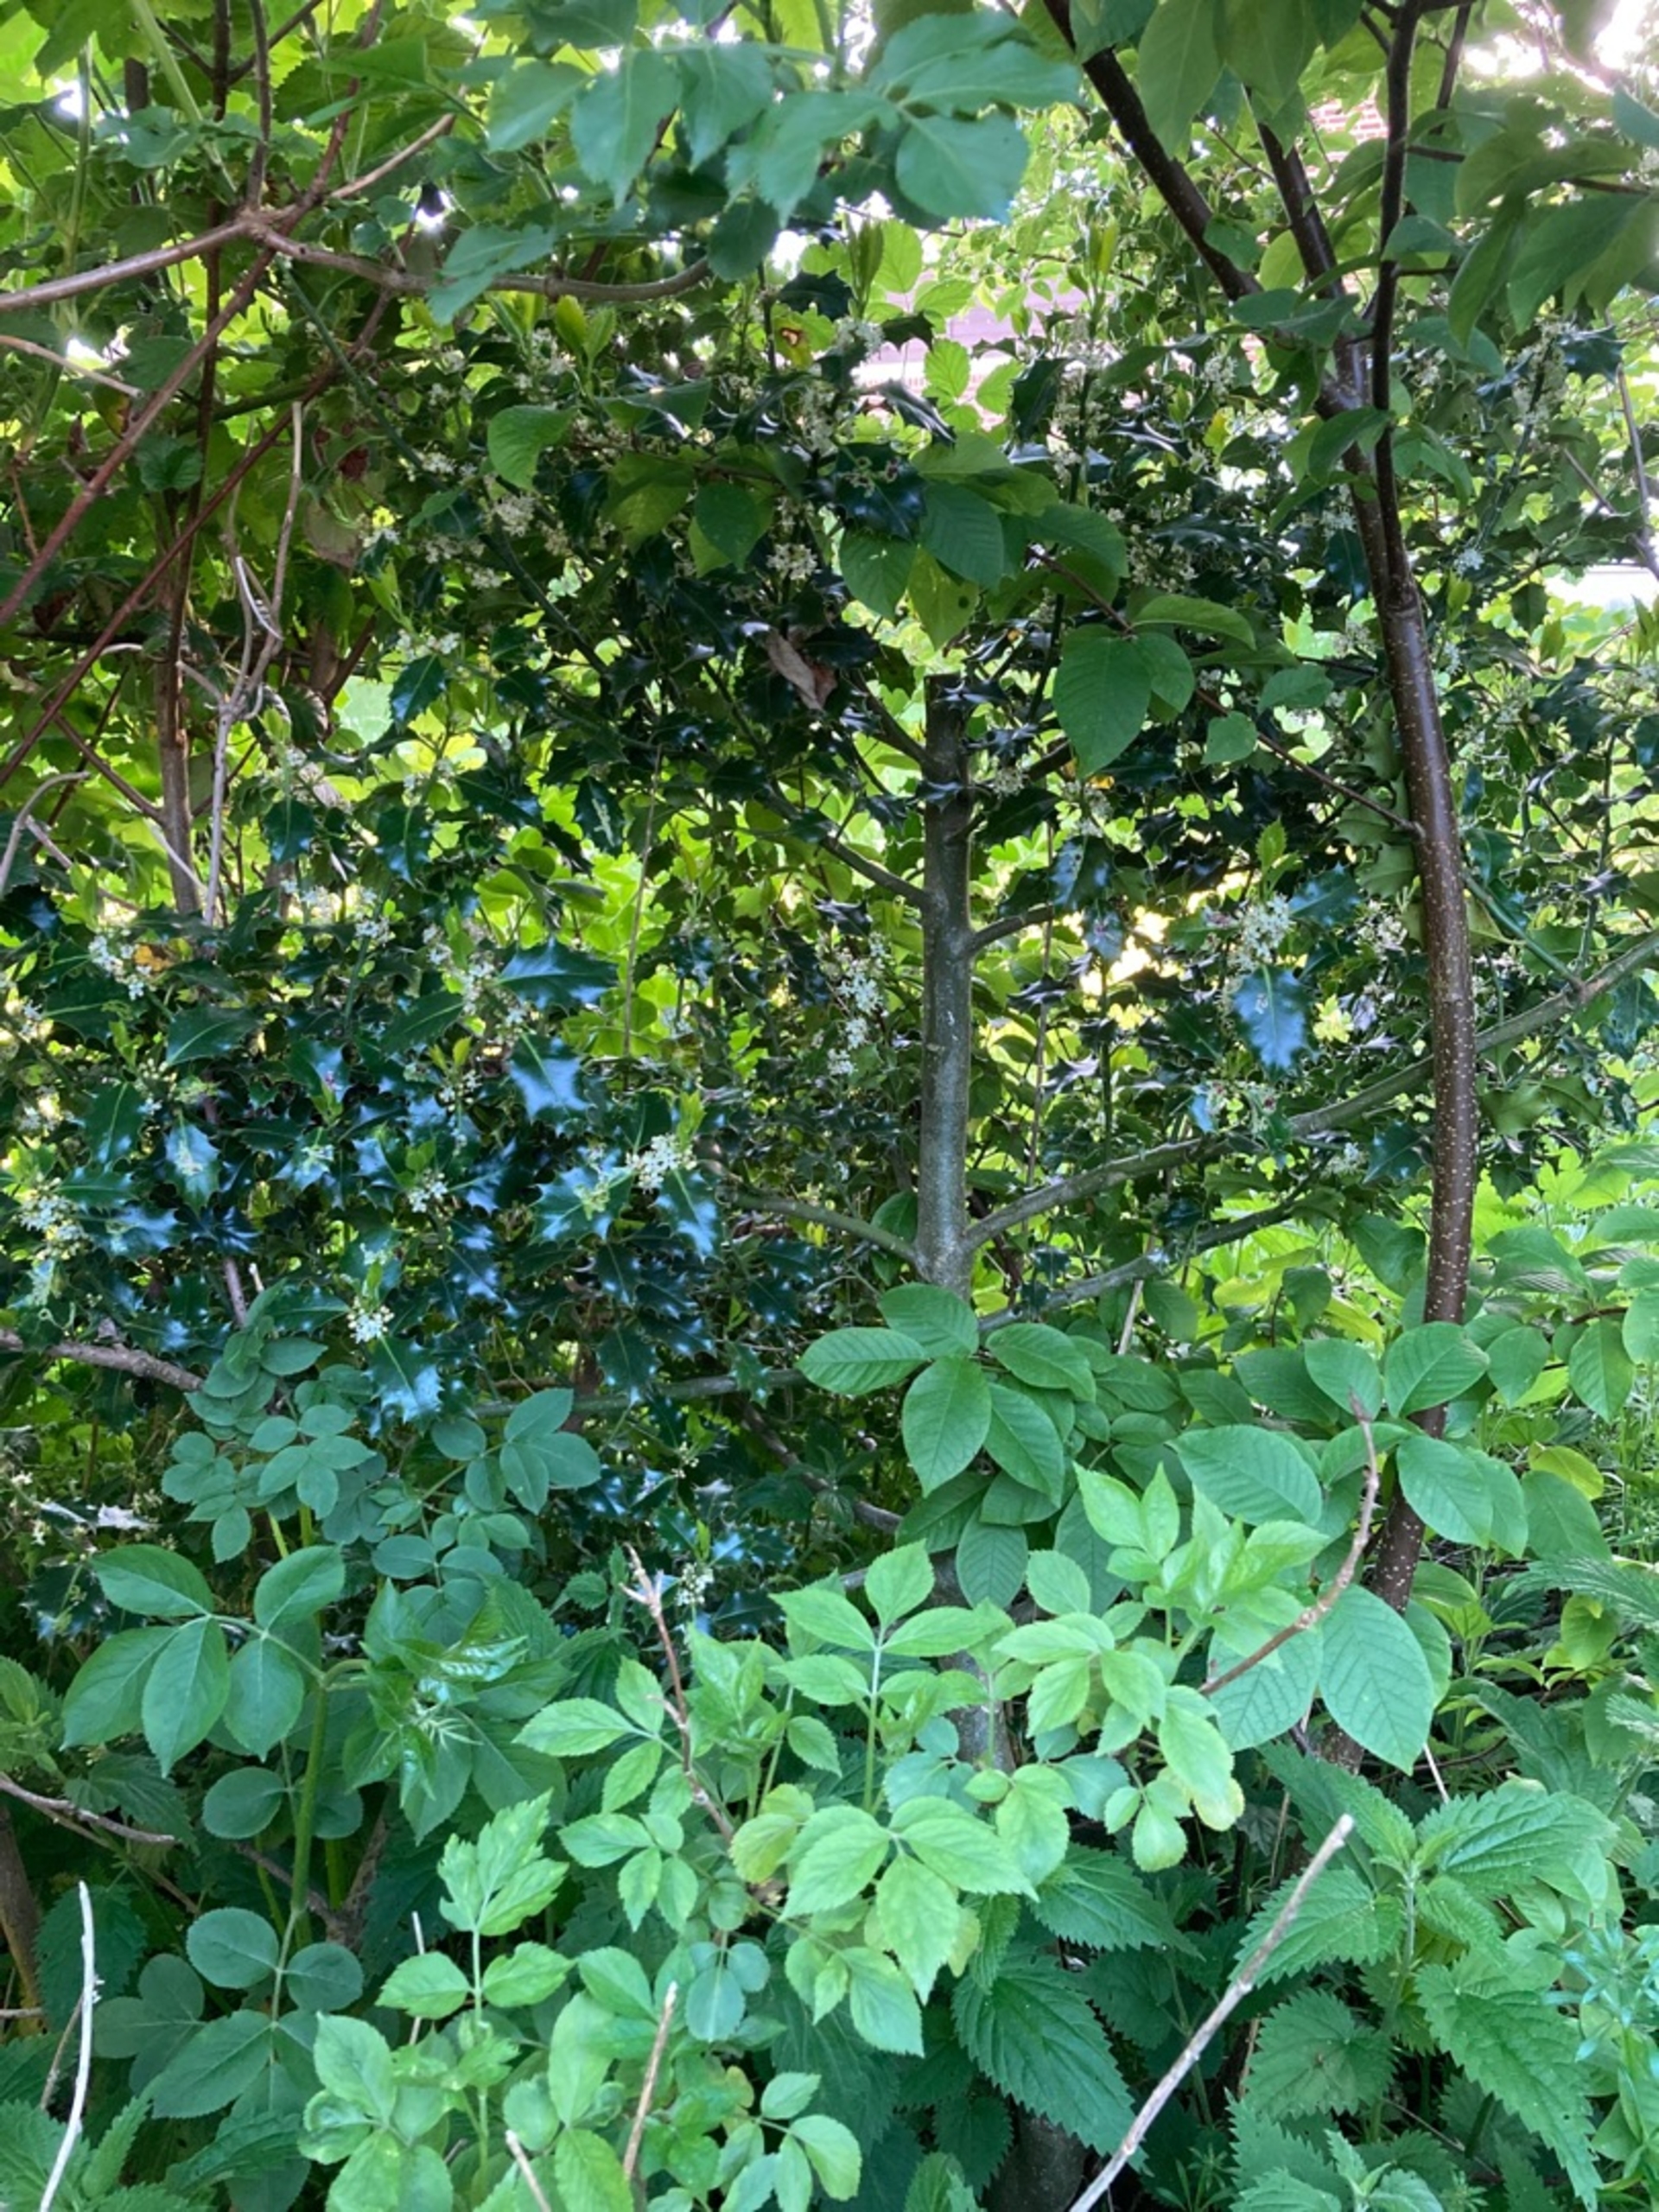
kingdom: Plantae
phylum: Tracheophyta
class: Magnoliopsida
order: Aquifoliales
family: Aquifoliaceae
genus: Ilex
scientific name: Ilex aquifolium
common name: Kristtorn
